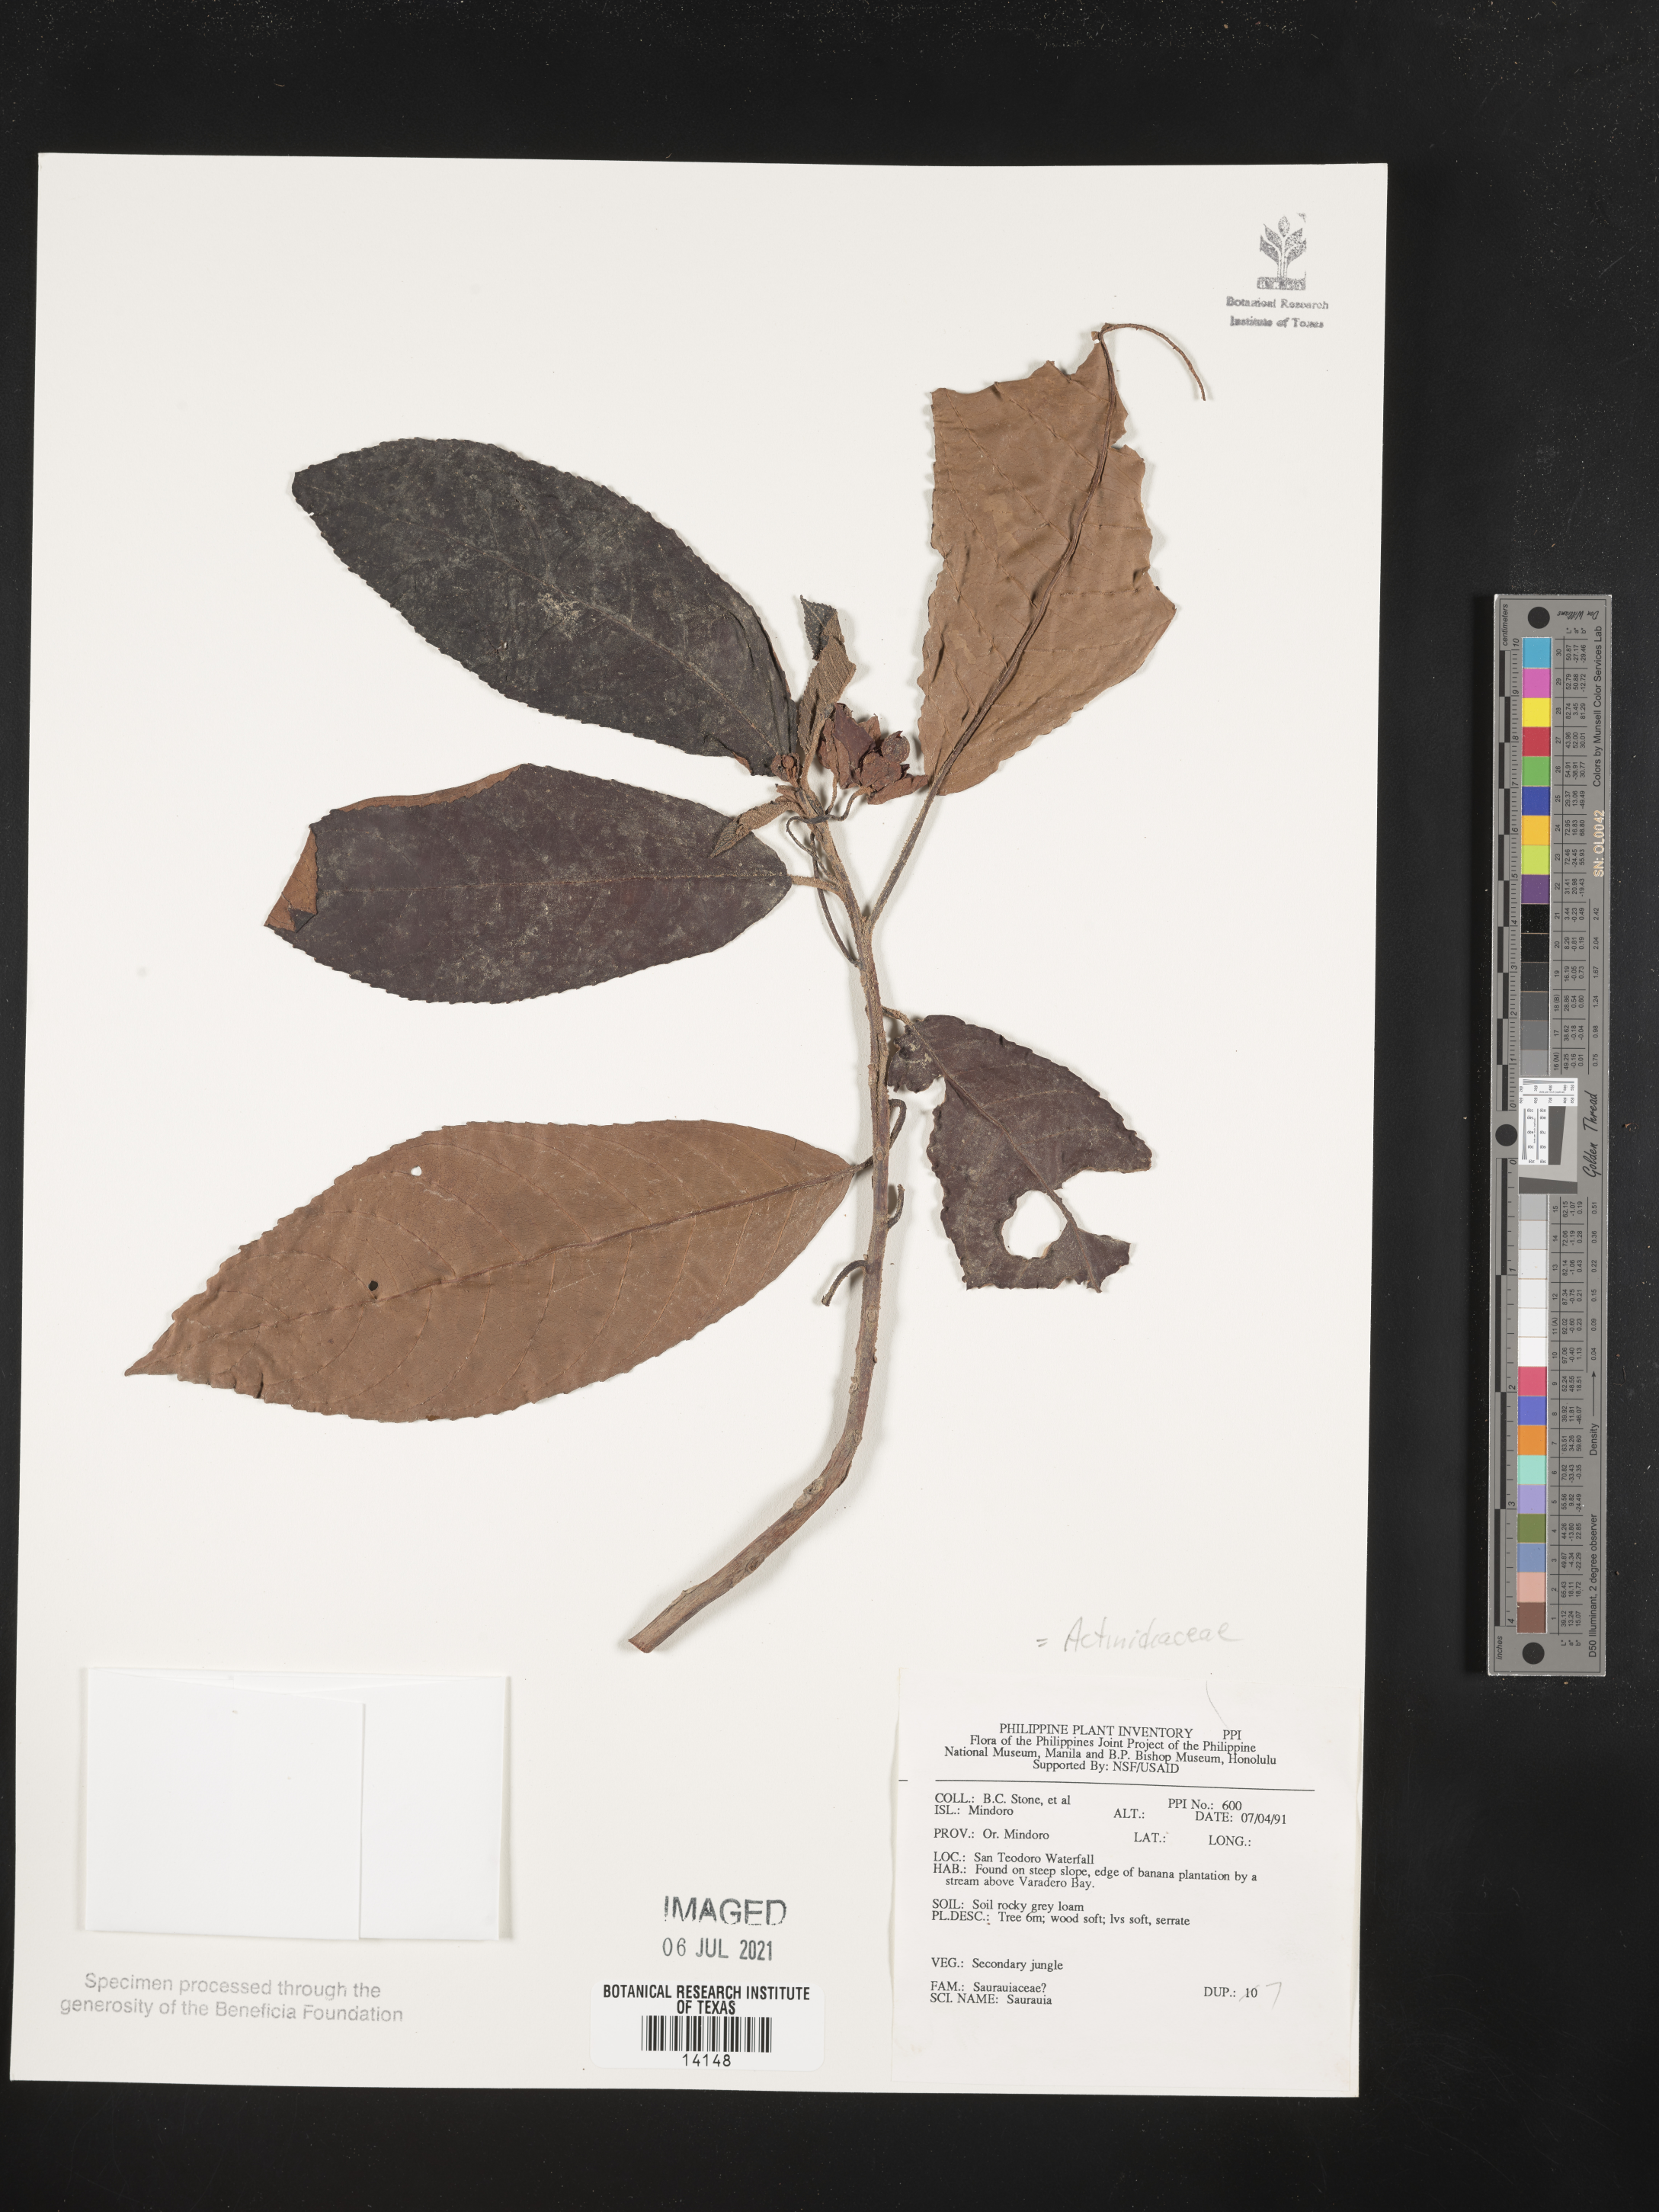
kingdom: Plantae
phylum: Tracheophyta
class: Magnoliopsida
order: Ericales
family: Actinidiaceae
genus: Saurauia
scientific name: Saurauia
